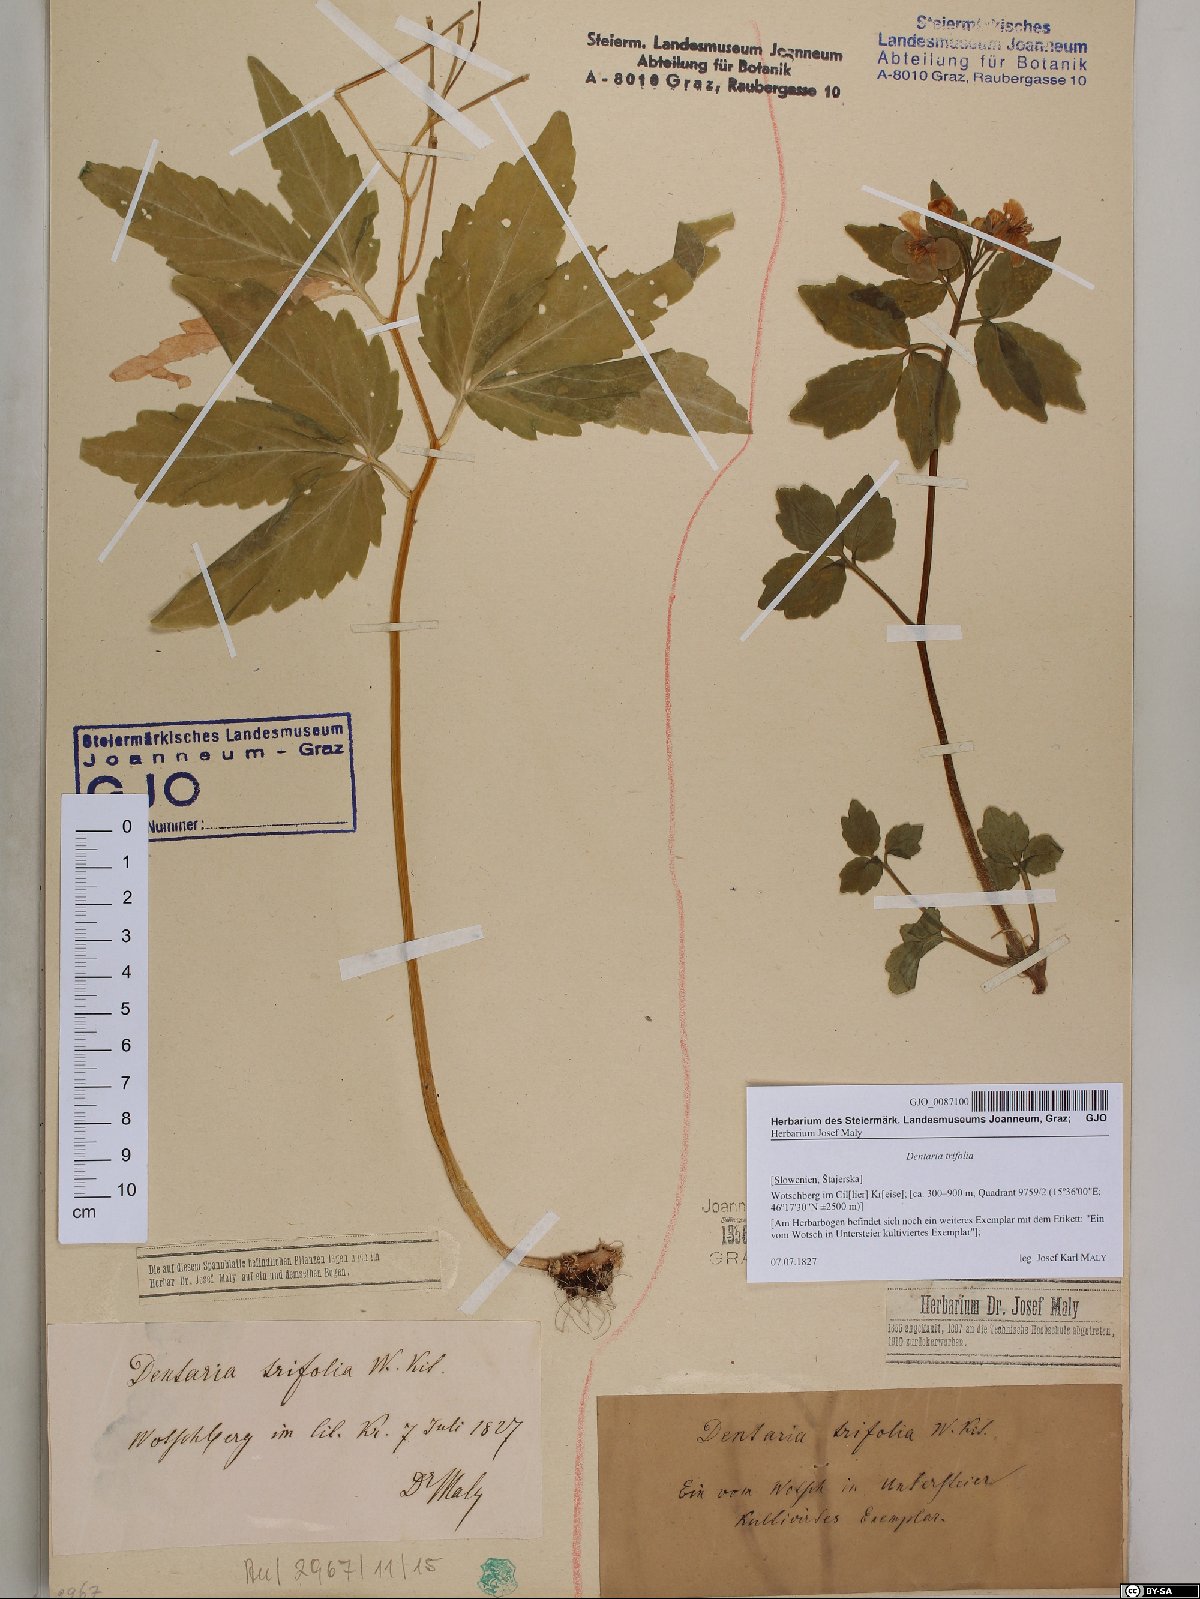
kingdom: Plantae
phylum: Tracheophyta
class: Magnoliopsida
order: Brassicales
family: Brassicaceae
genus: Cardamine
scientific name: Cardamine waldsteinii
